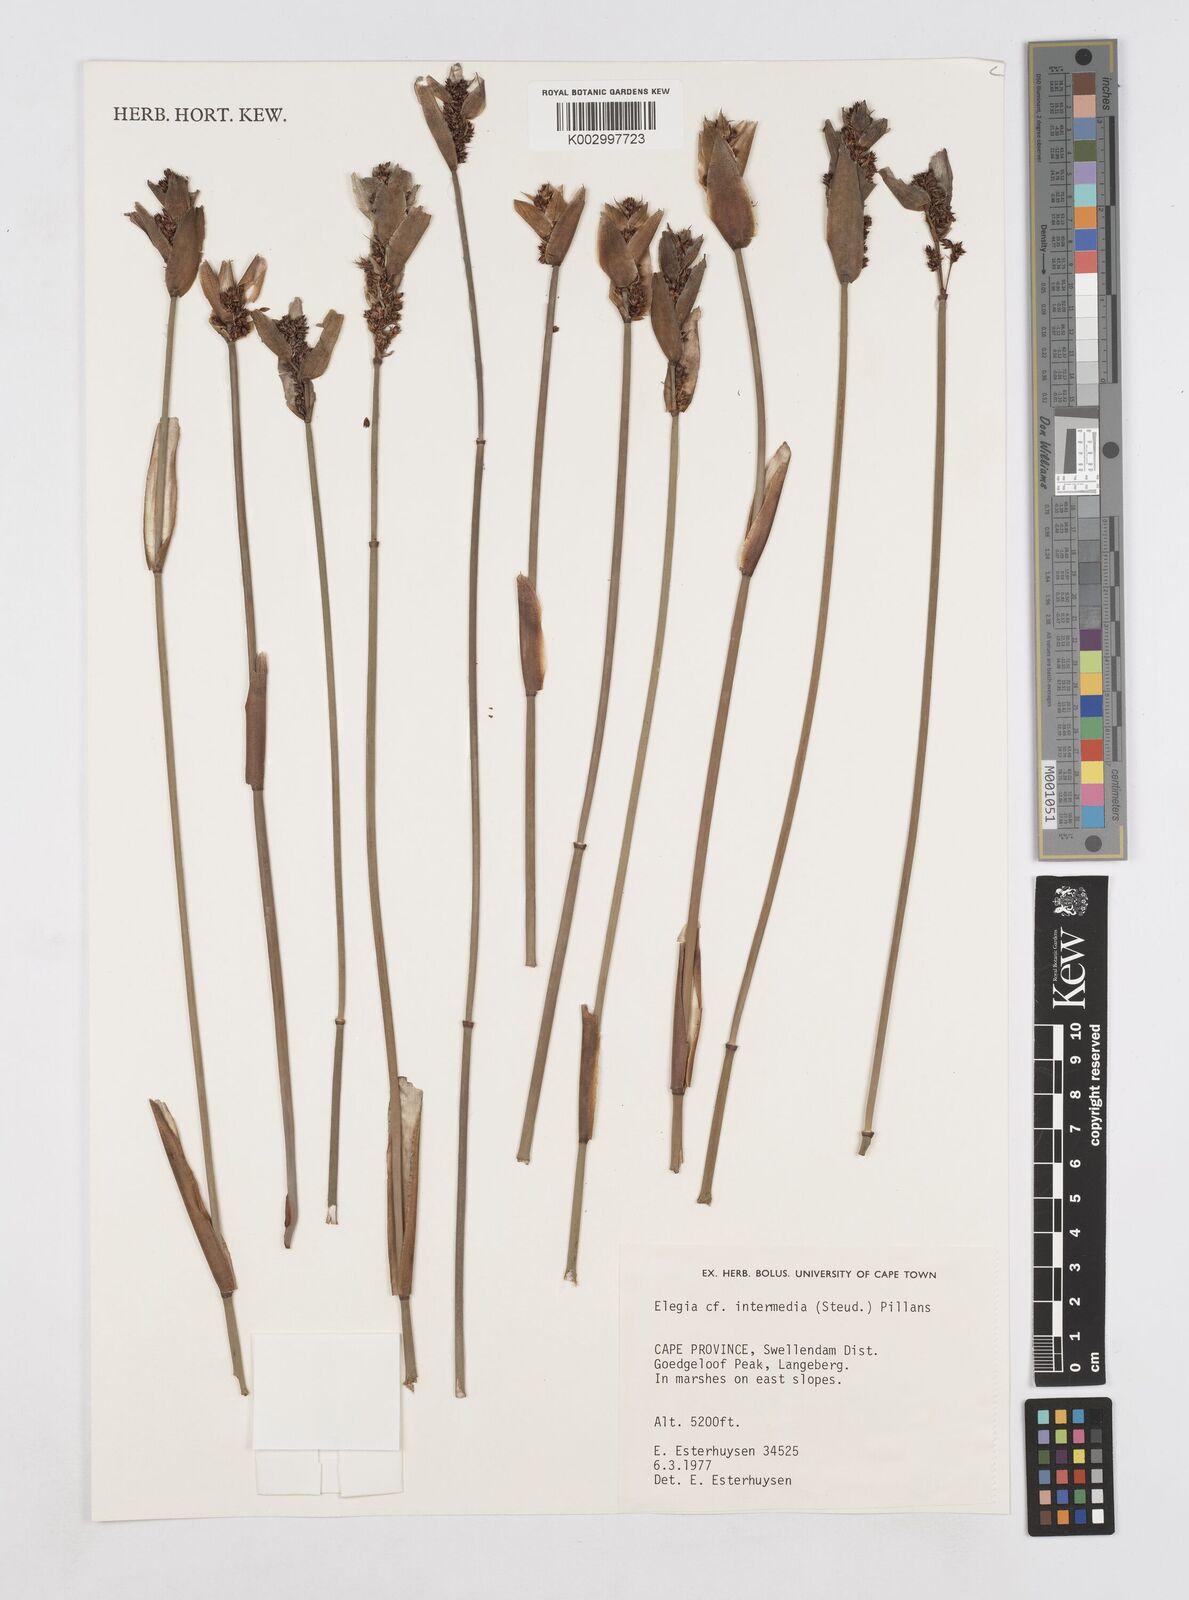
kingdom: Plantae
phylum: Tracheophyta
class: Liliopsida
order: Poales
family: Restionaceae
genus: Elegia
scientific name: Elegia intermedia
